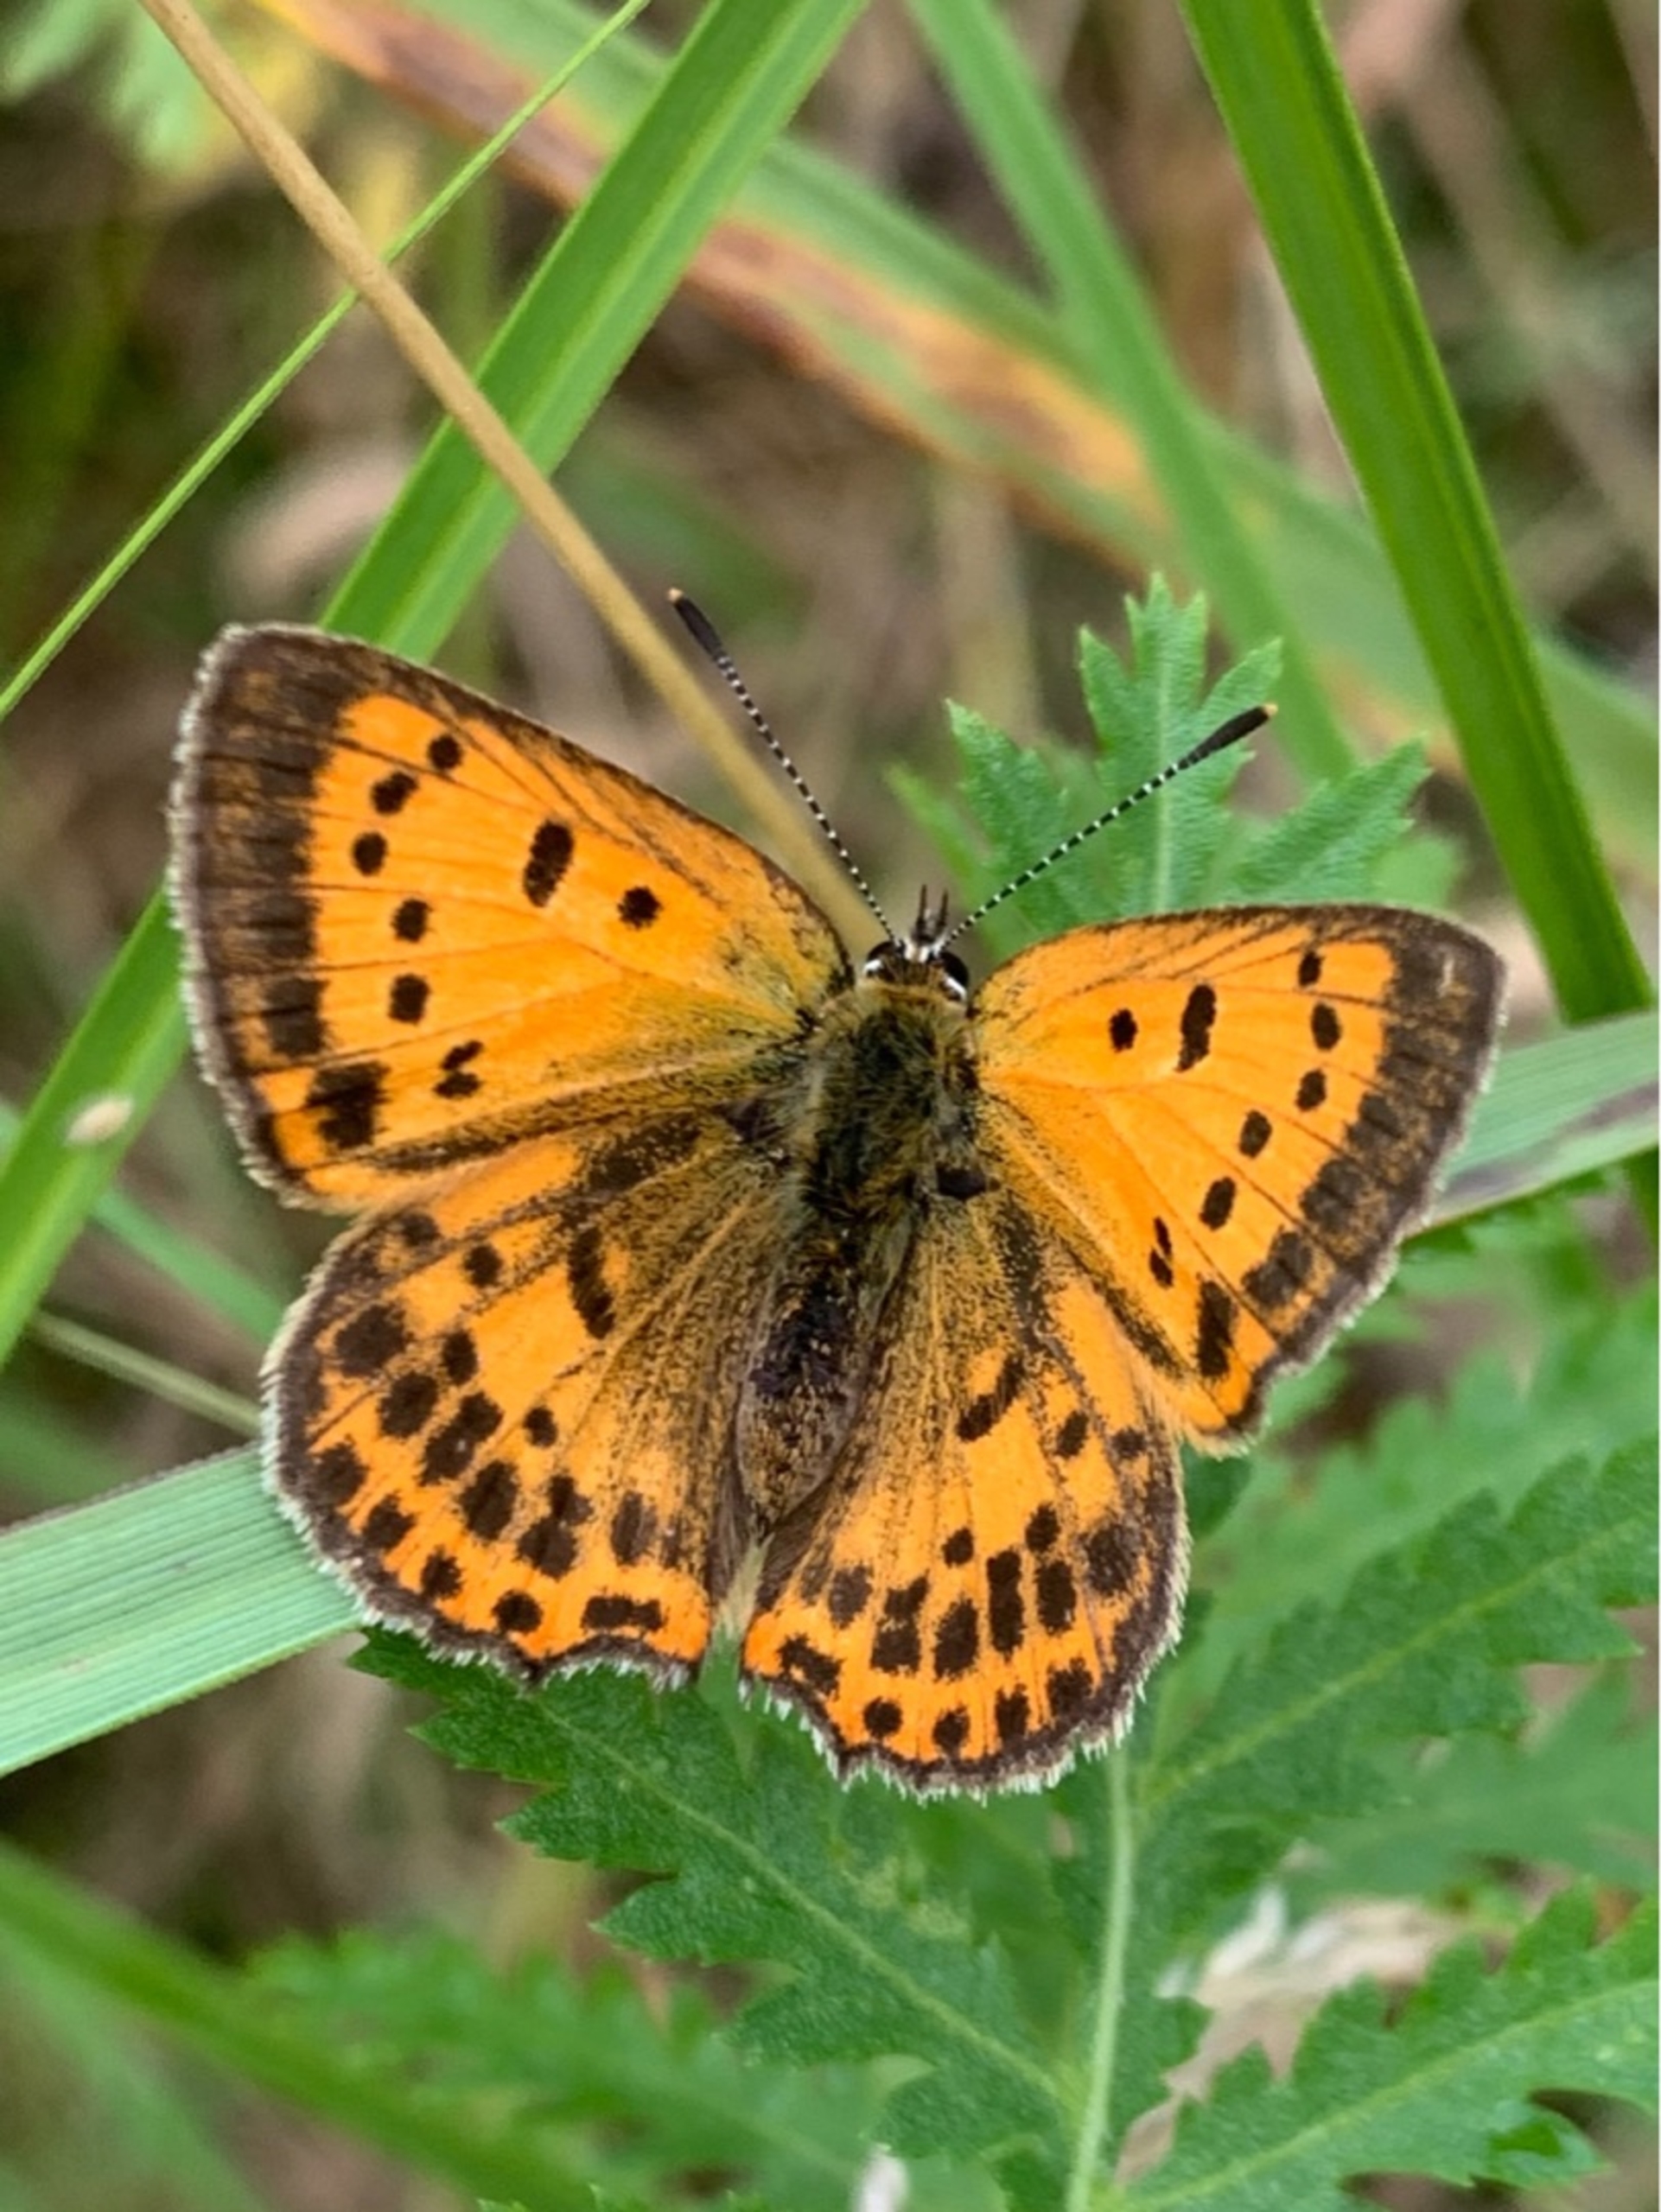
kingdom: Animalia
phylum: Arthropoda
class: Insecta
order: Lepidoptera
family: Lycaenidae
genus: Lycaena
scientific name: Lycaena virgaureae
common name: Dukatsommerfugl
